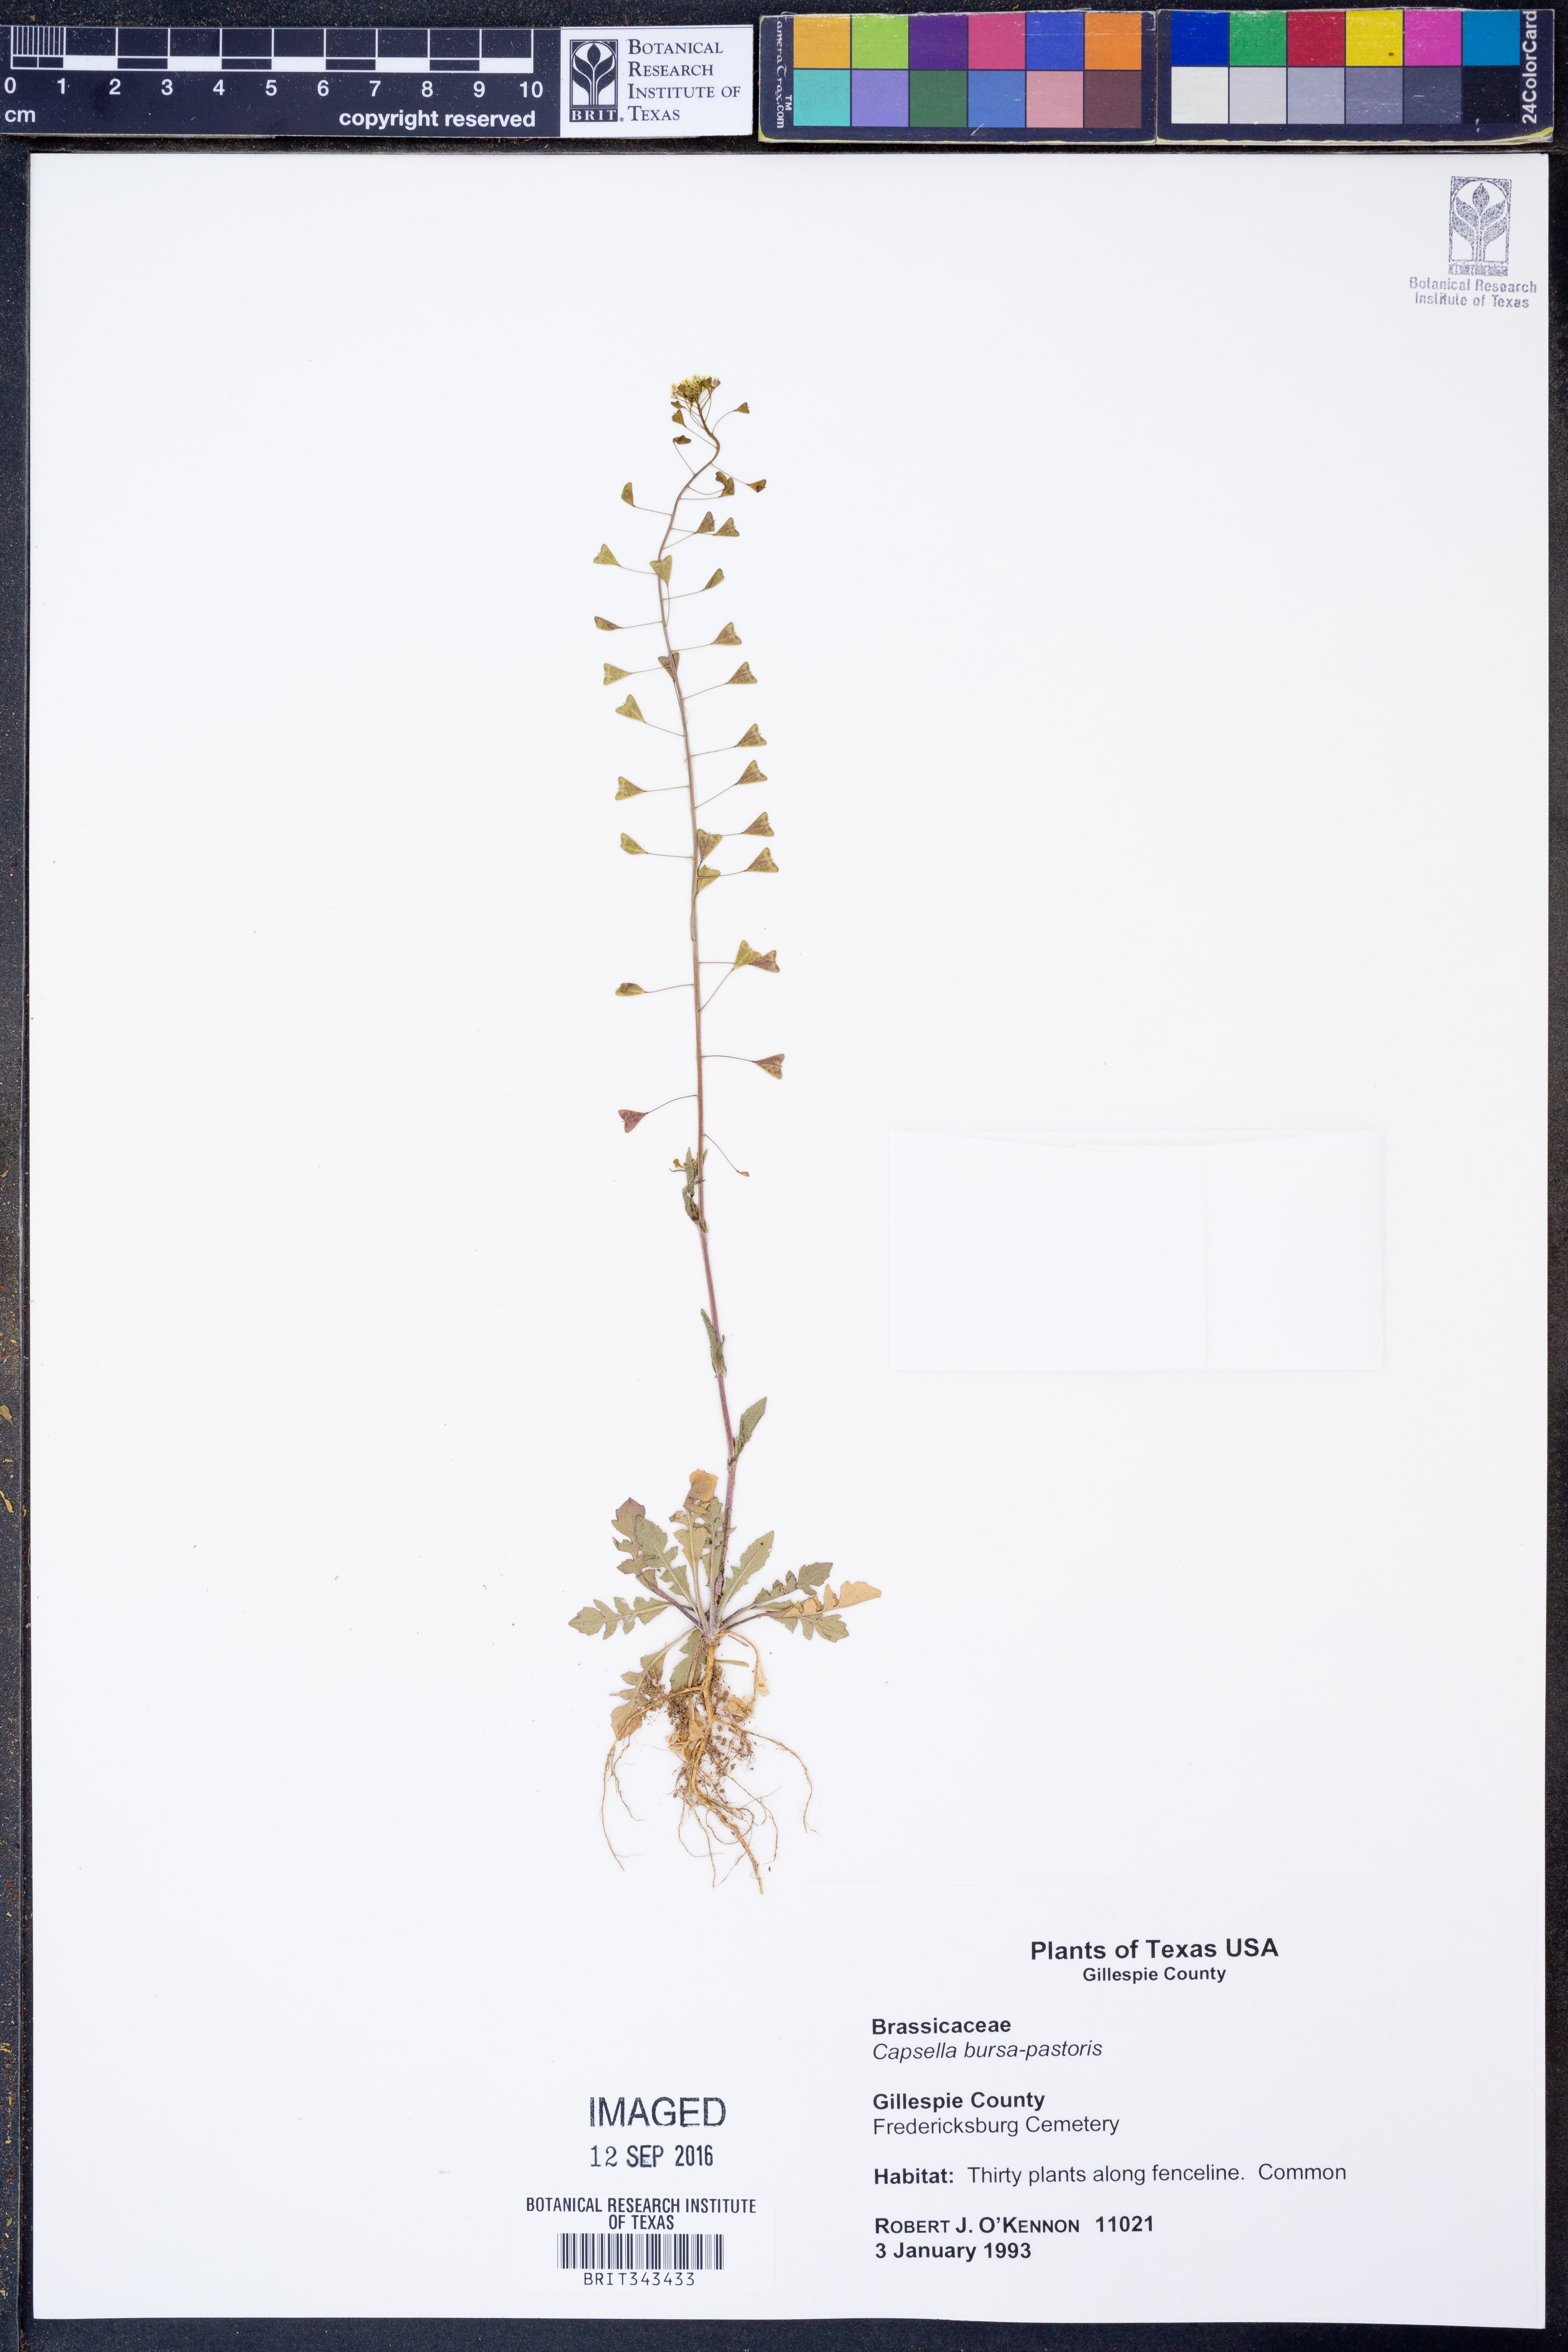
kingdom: Plantae
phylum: Tracheophyta
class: Magnoliopsida
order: Brassicales
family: Brassicaceae
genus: Capsella
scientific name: Capsella bursa-pastoris
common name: Shepherd's purse
